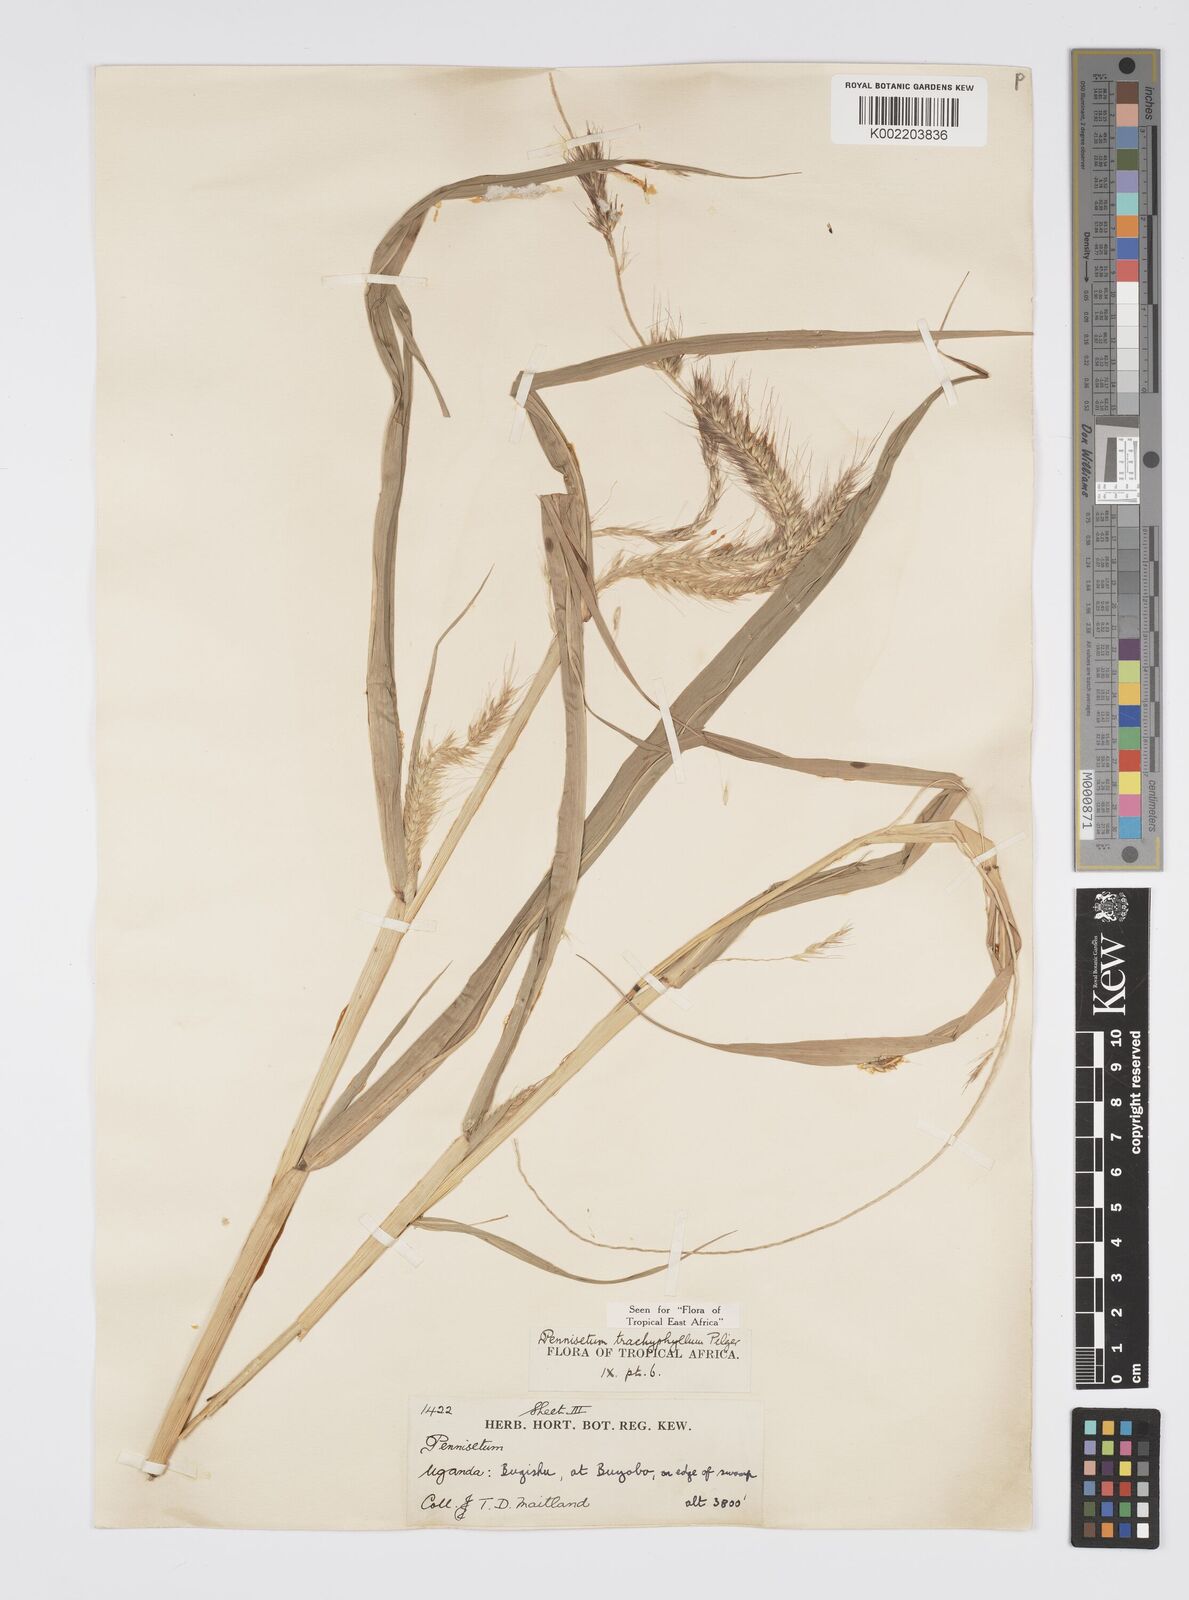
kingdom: Plantae
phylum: Tracheophyta
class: Liliopsida
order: Poales
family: Poaceae
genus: Cenchrus
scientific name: Cenchrus trachyphyllus
